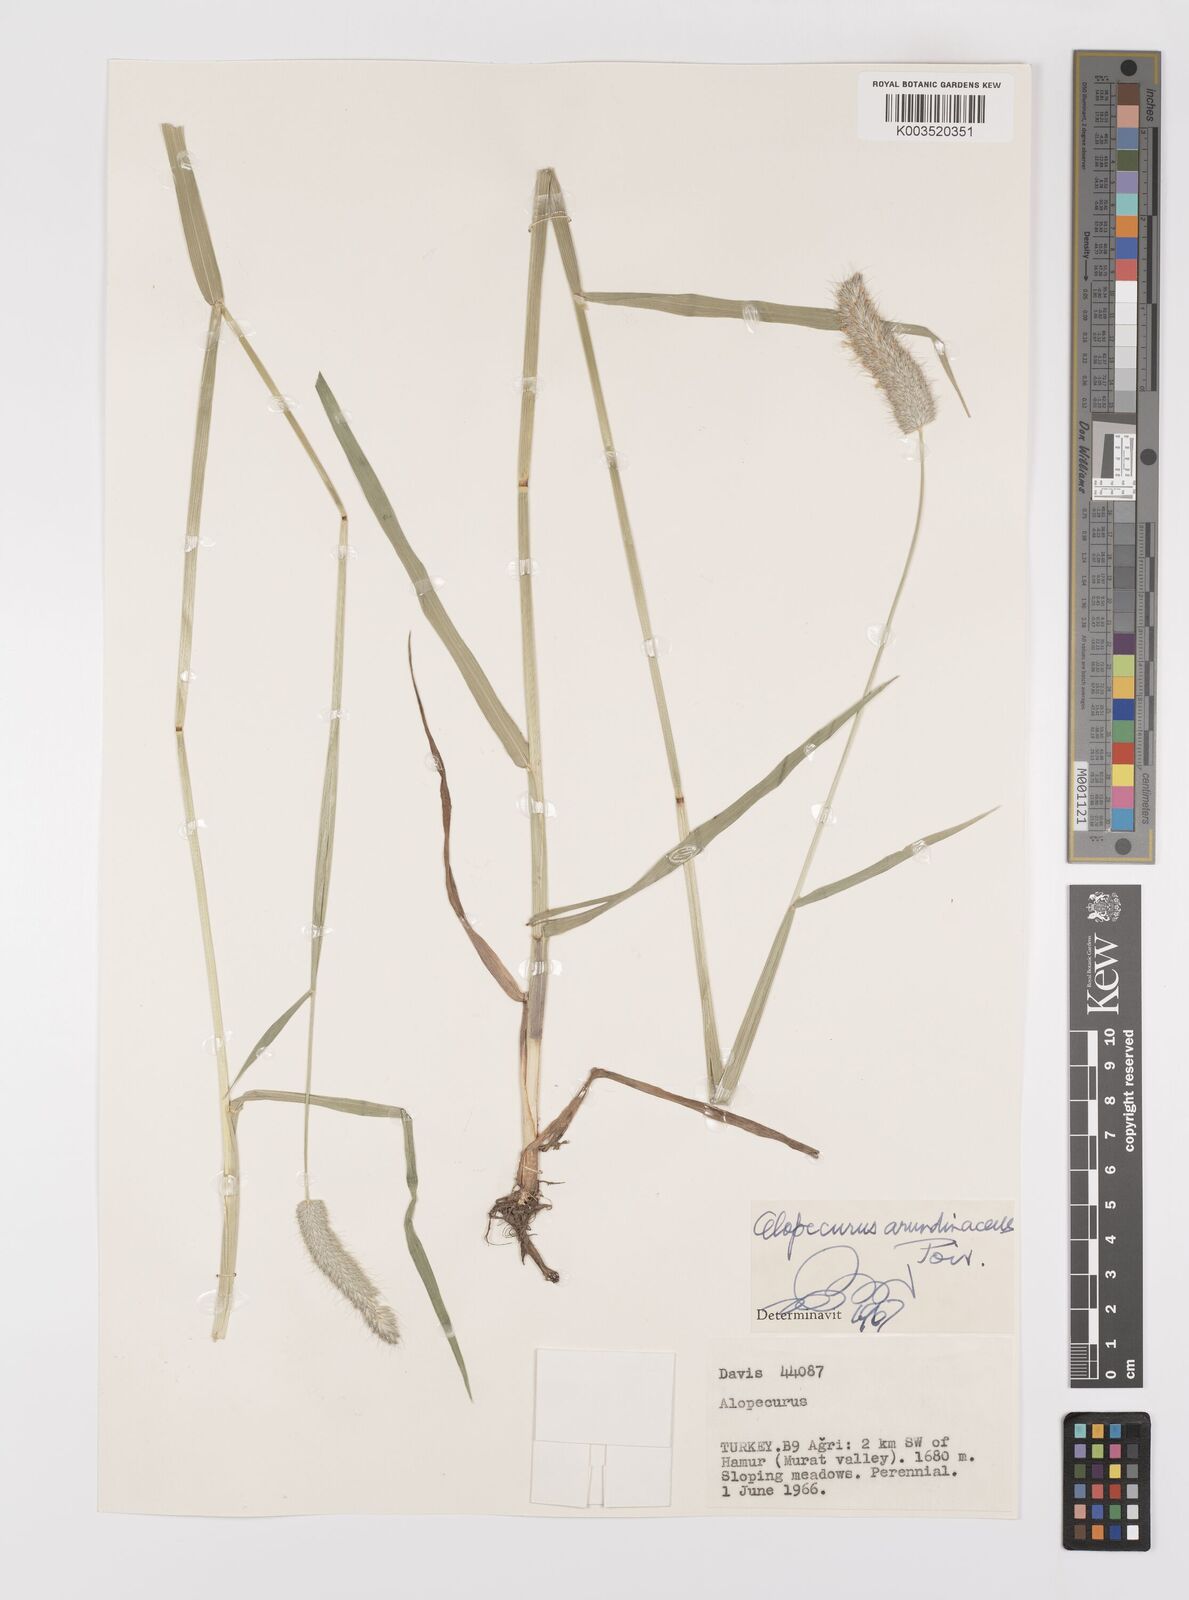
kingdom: Plantae
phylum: Tracheophyta
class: Liliopsida
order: Poales
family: Poaceae
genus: Alopecurus
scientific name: Alopecurus arundinaceus
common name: Creeping meadow foxtail
